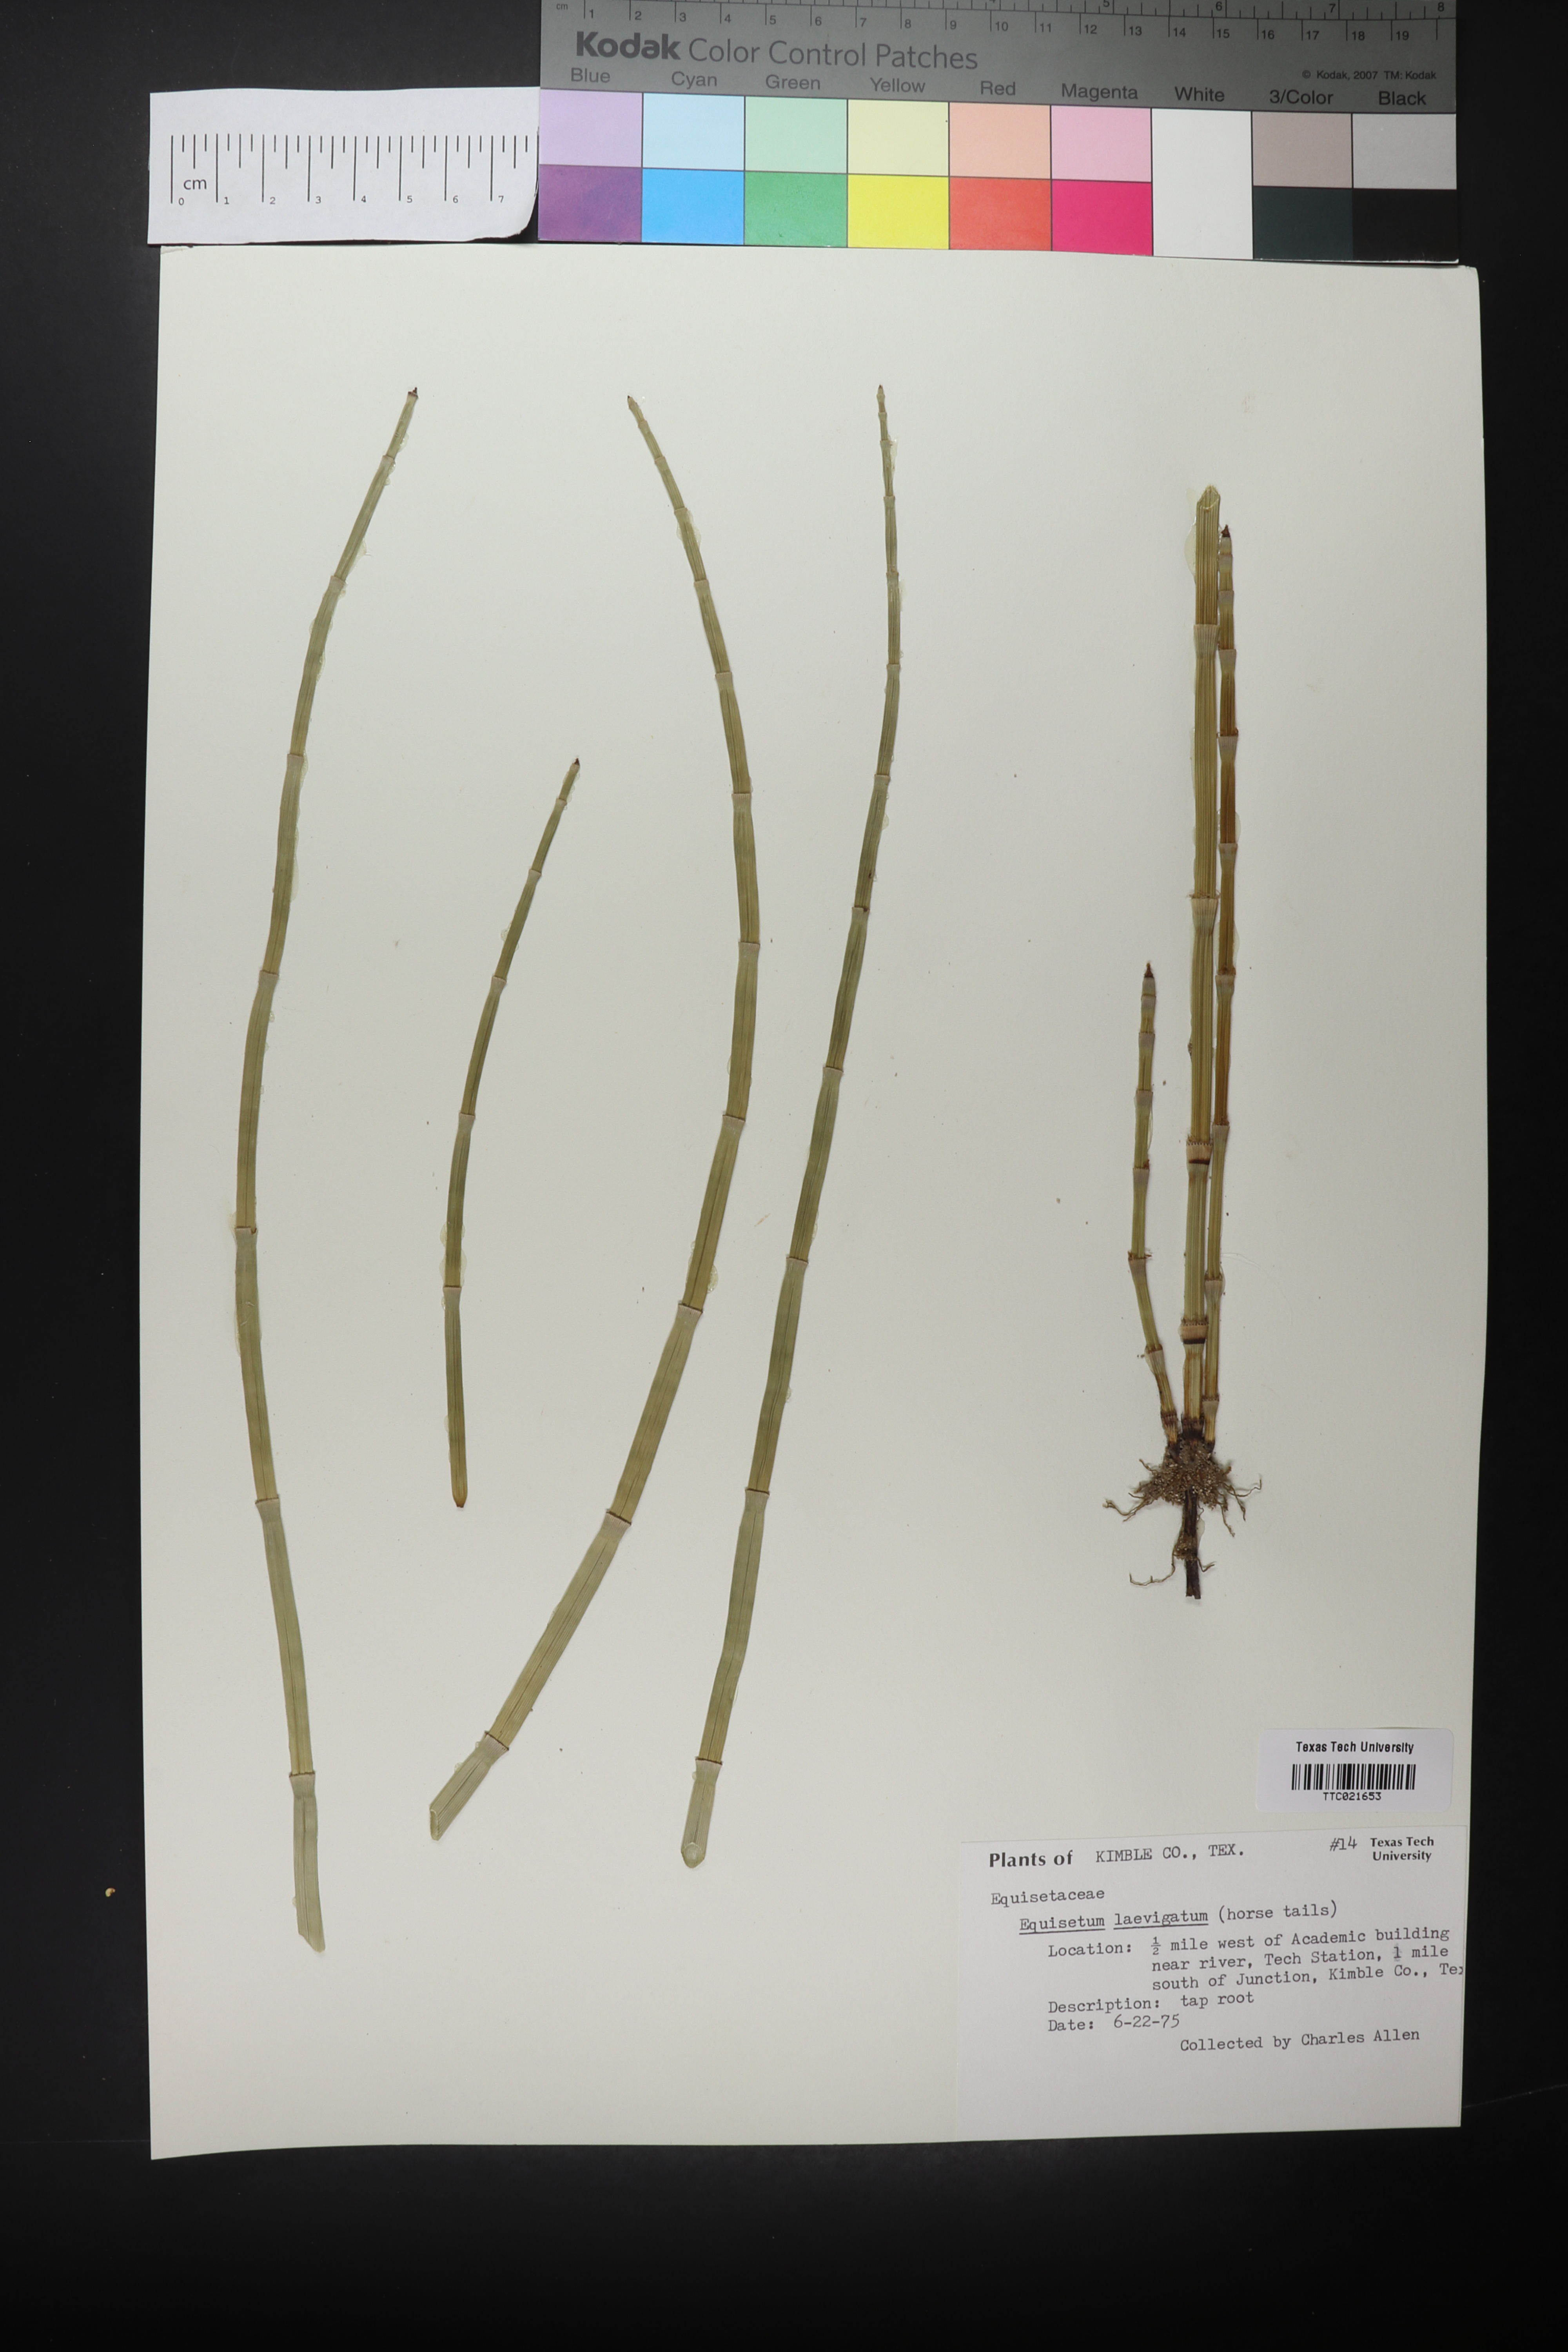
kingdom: Plantae
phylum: Tracheophyta
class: Polypodiopsida
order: Equisetales
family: Equisetaceae
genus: Equisetum
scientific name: Equisetum laevigatum
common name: Smooth scouring-rush
